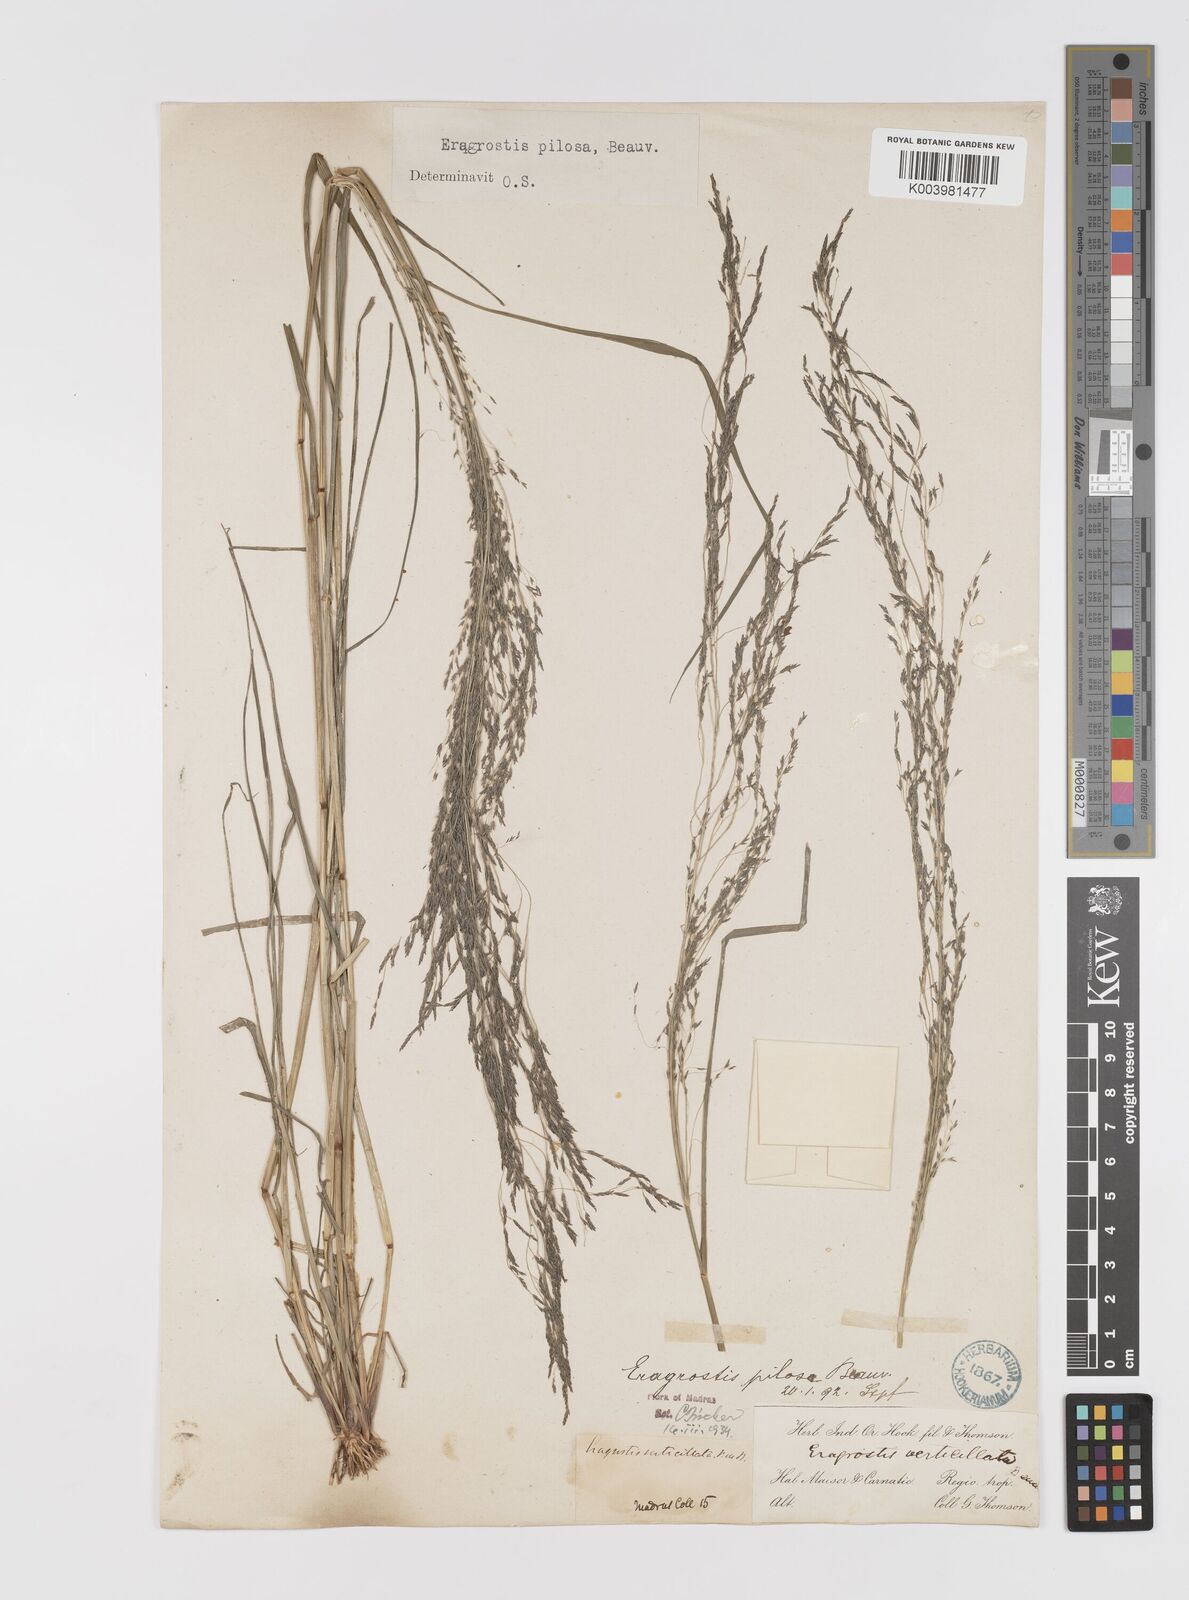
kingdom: Plantae
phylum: Tracheophyta
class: Liliopsida
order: Poales
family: Poaceae
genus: Eragrostis
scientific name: Eragrostis pilosa
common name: Indian lovegrass
